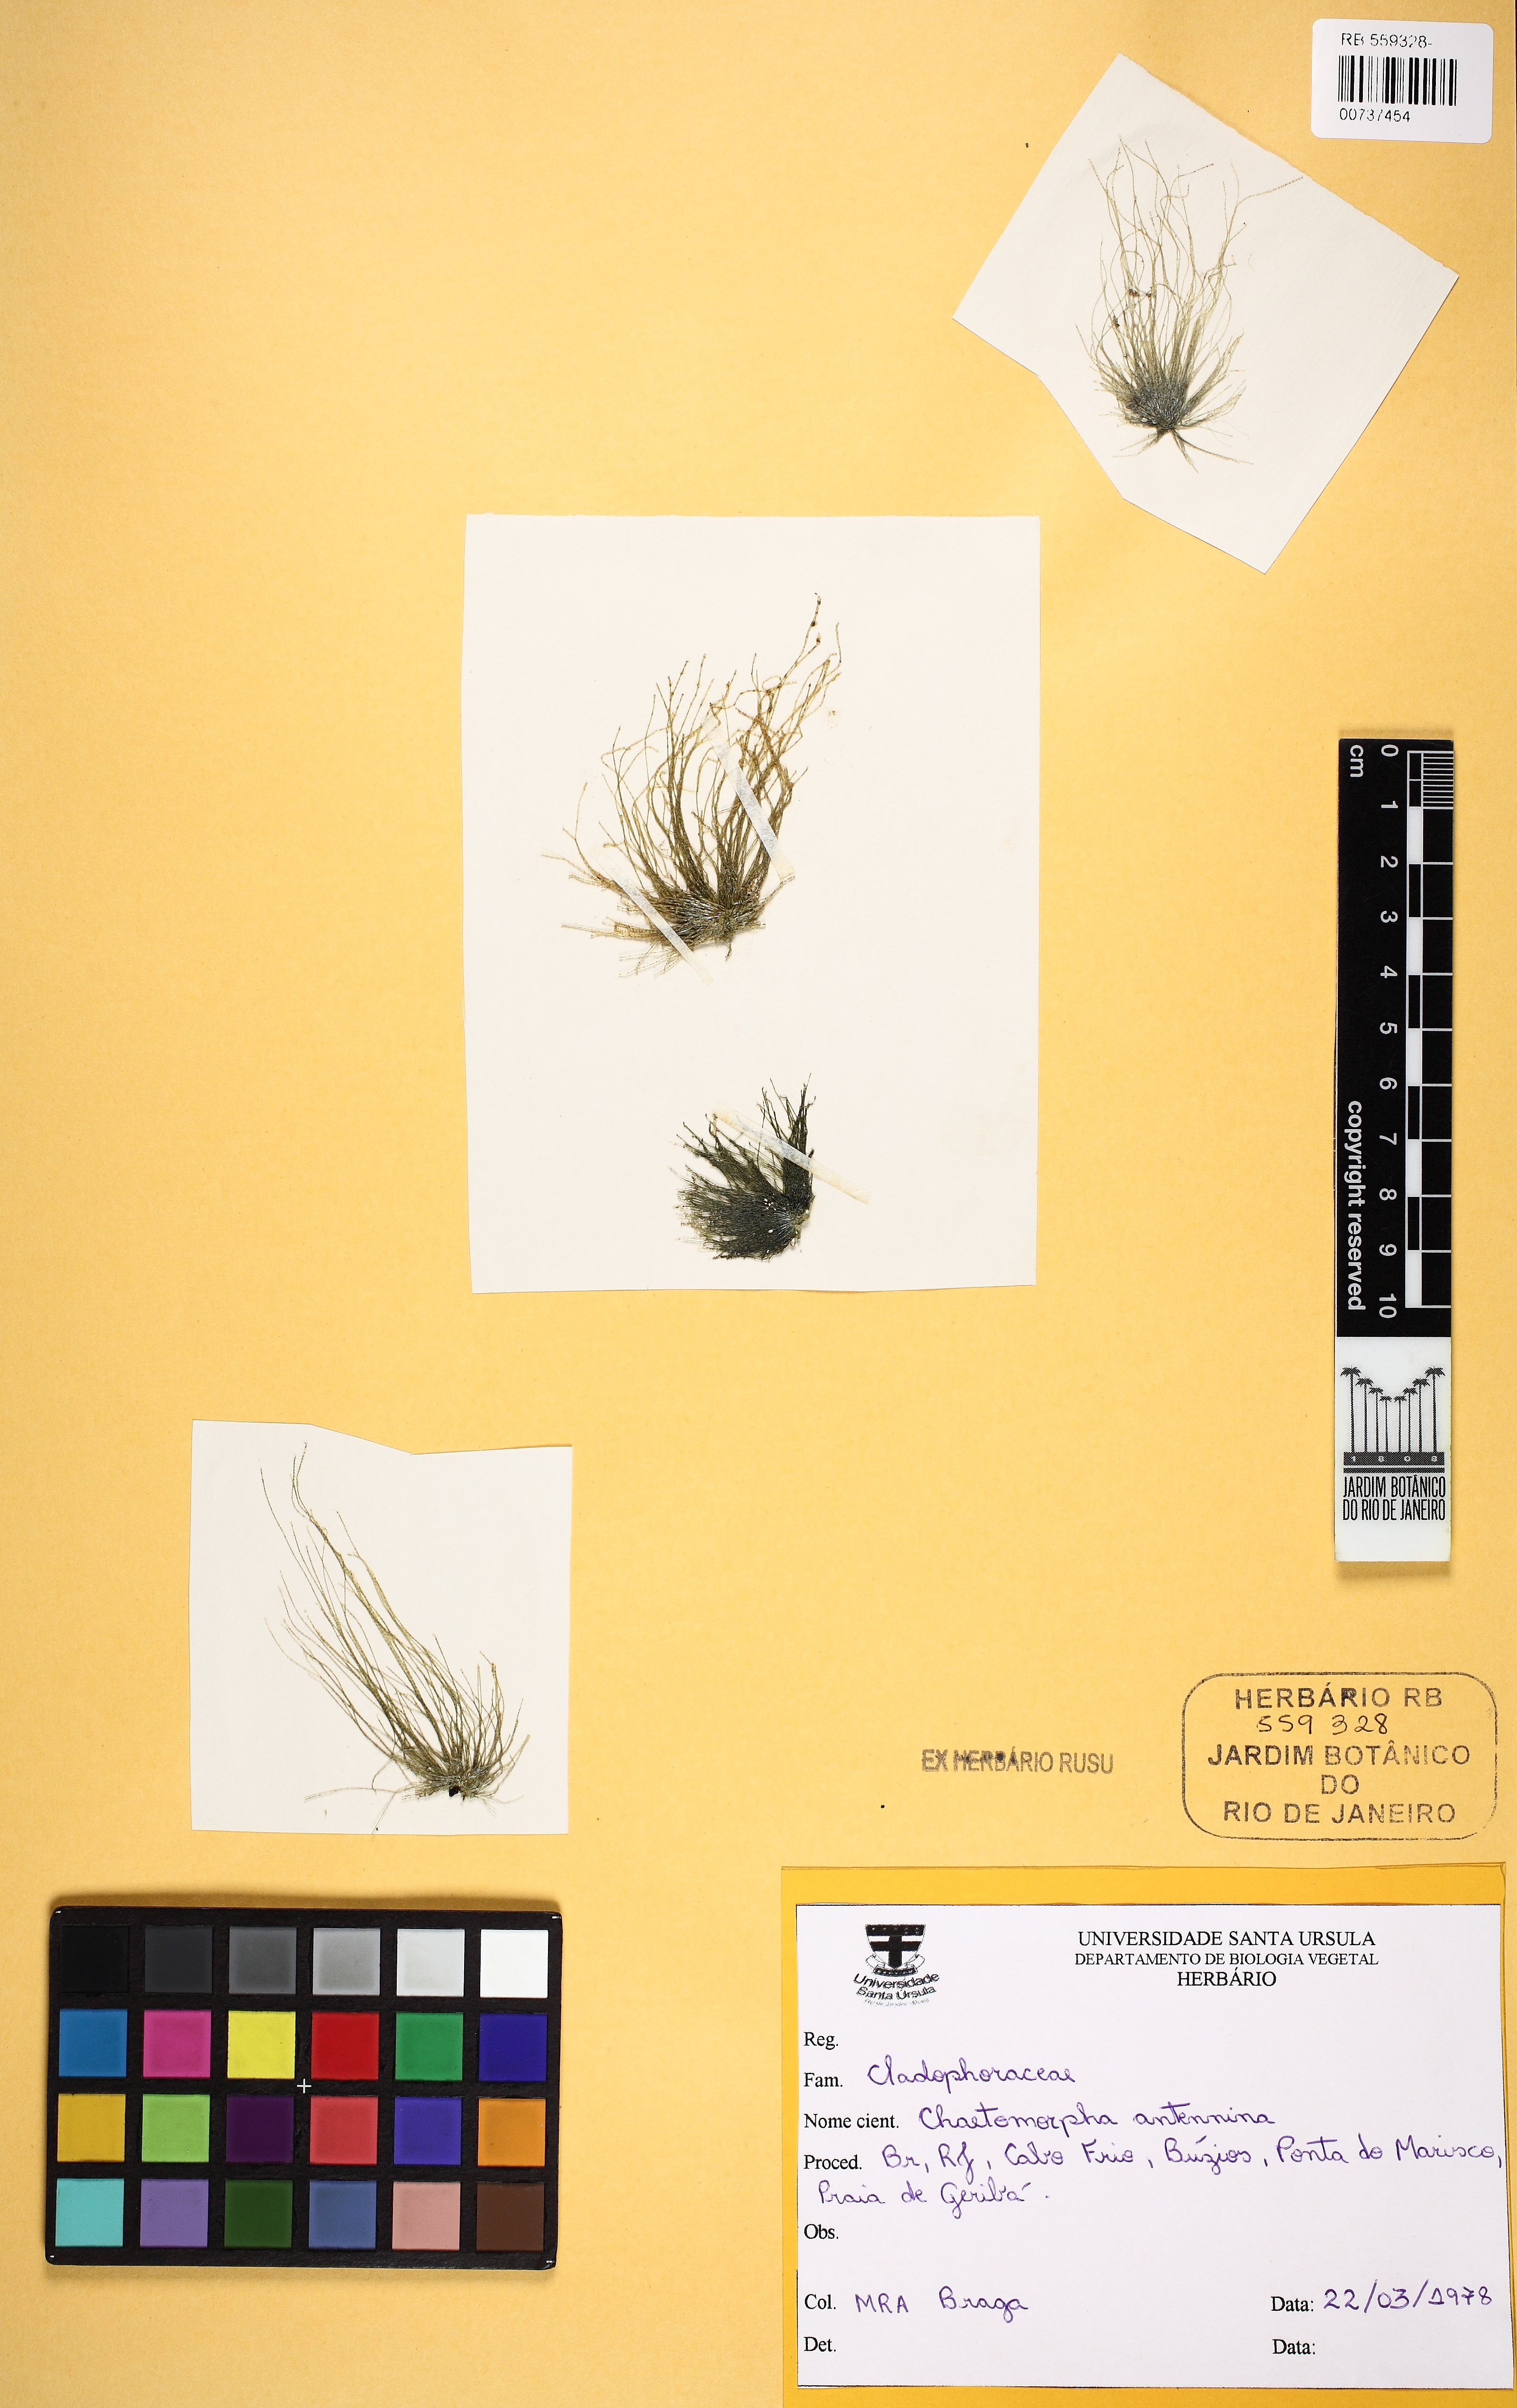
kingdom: Plantae
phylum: Chlorophyta
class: Ulvophyceae
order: Cladophorales
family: Cladophoraceae
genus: Chaetomorpha
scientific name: Chaetomorpha antennina
